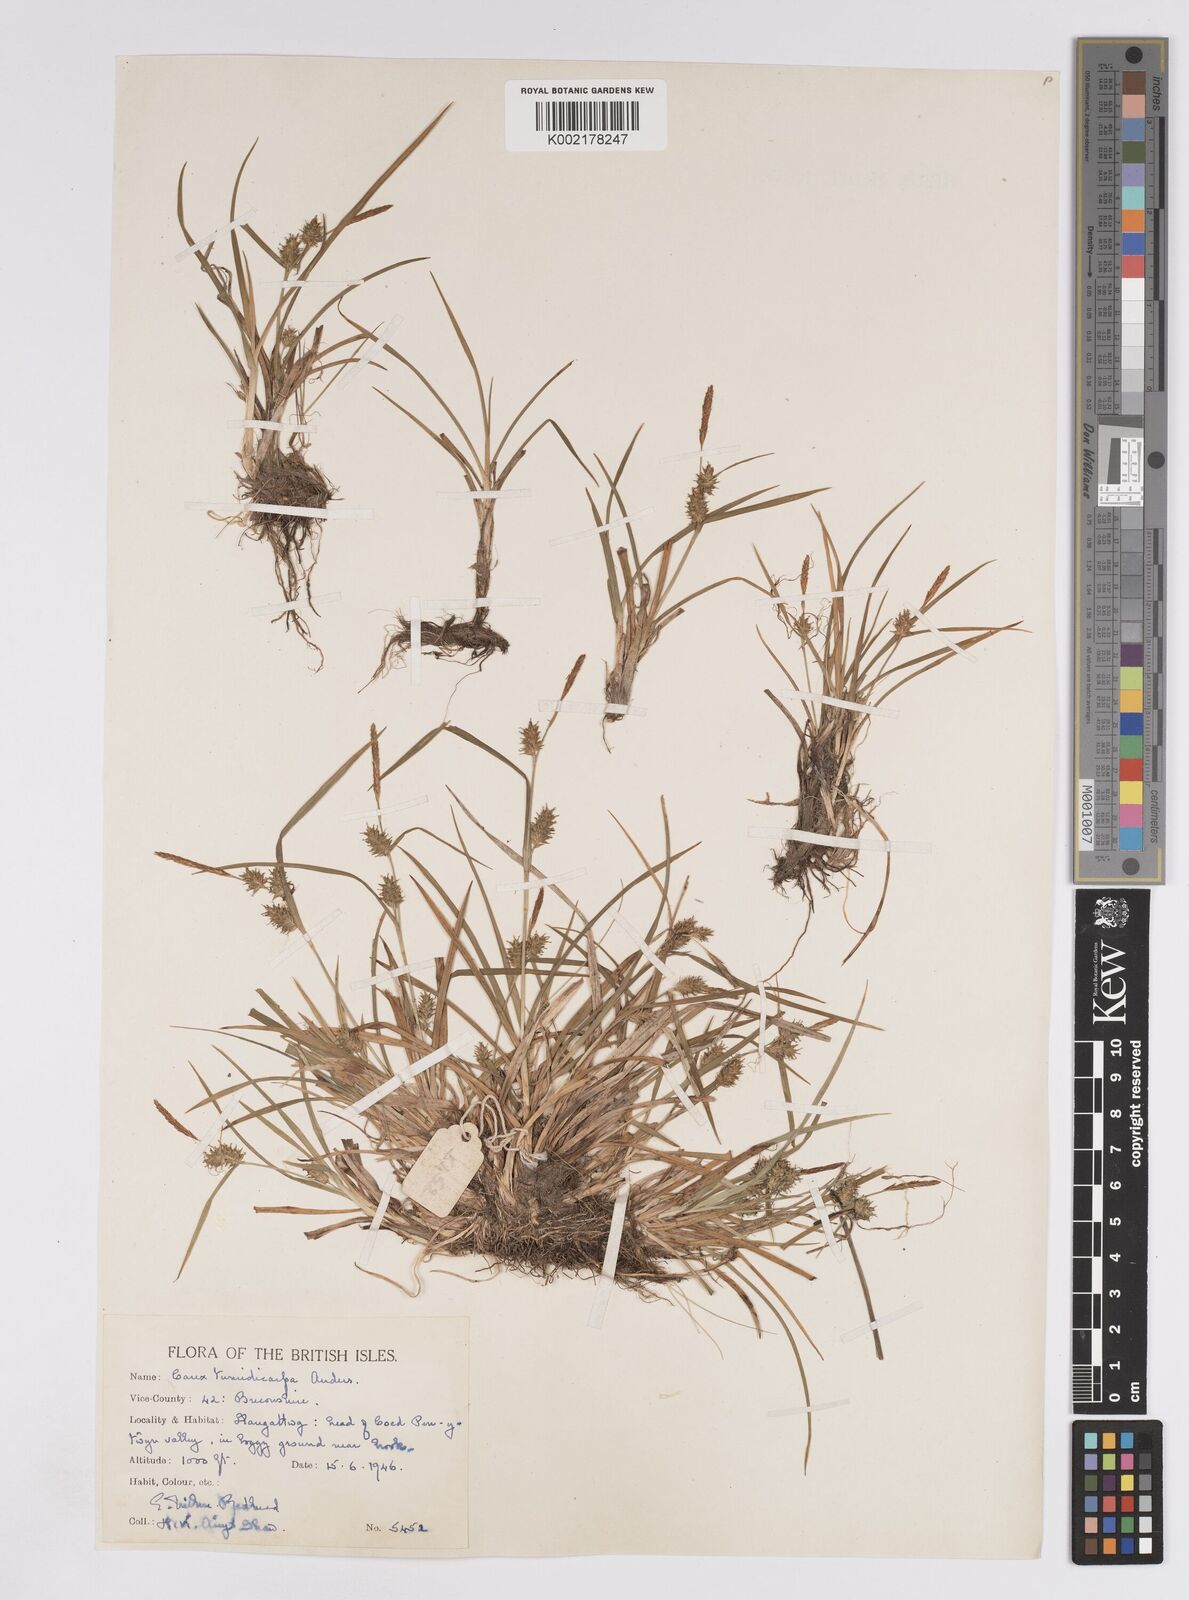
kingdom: Plantae
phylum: Tracheophyta
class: Liliopsida
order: Poales
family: Cyperaceae
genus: Carex
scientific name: Carex demissa
